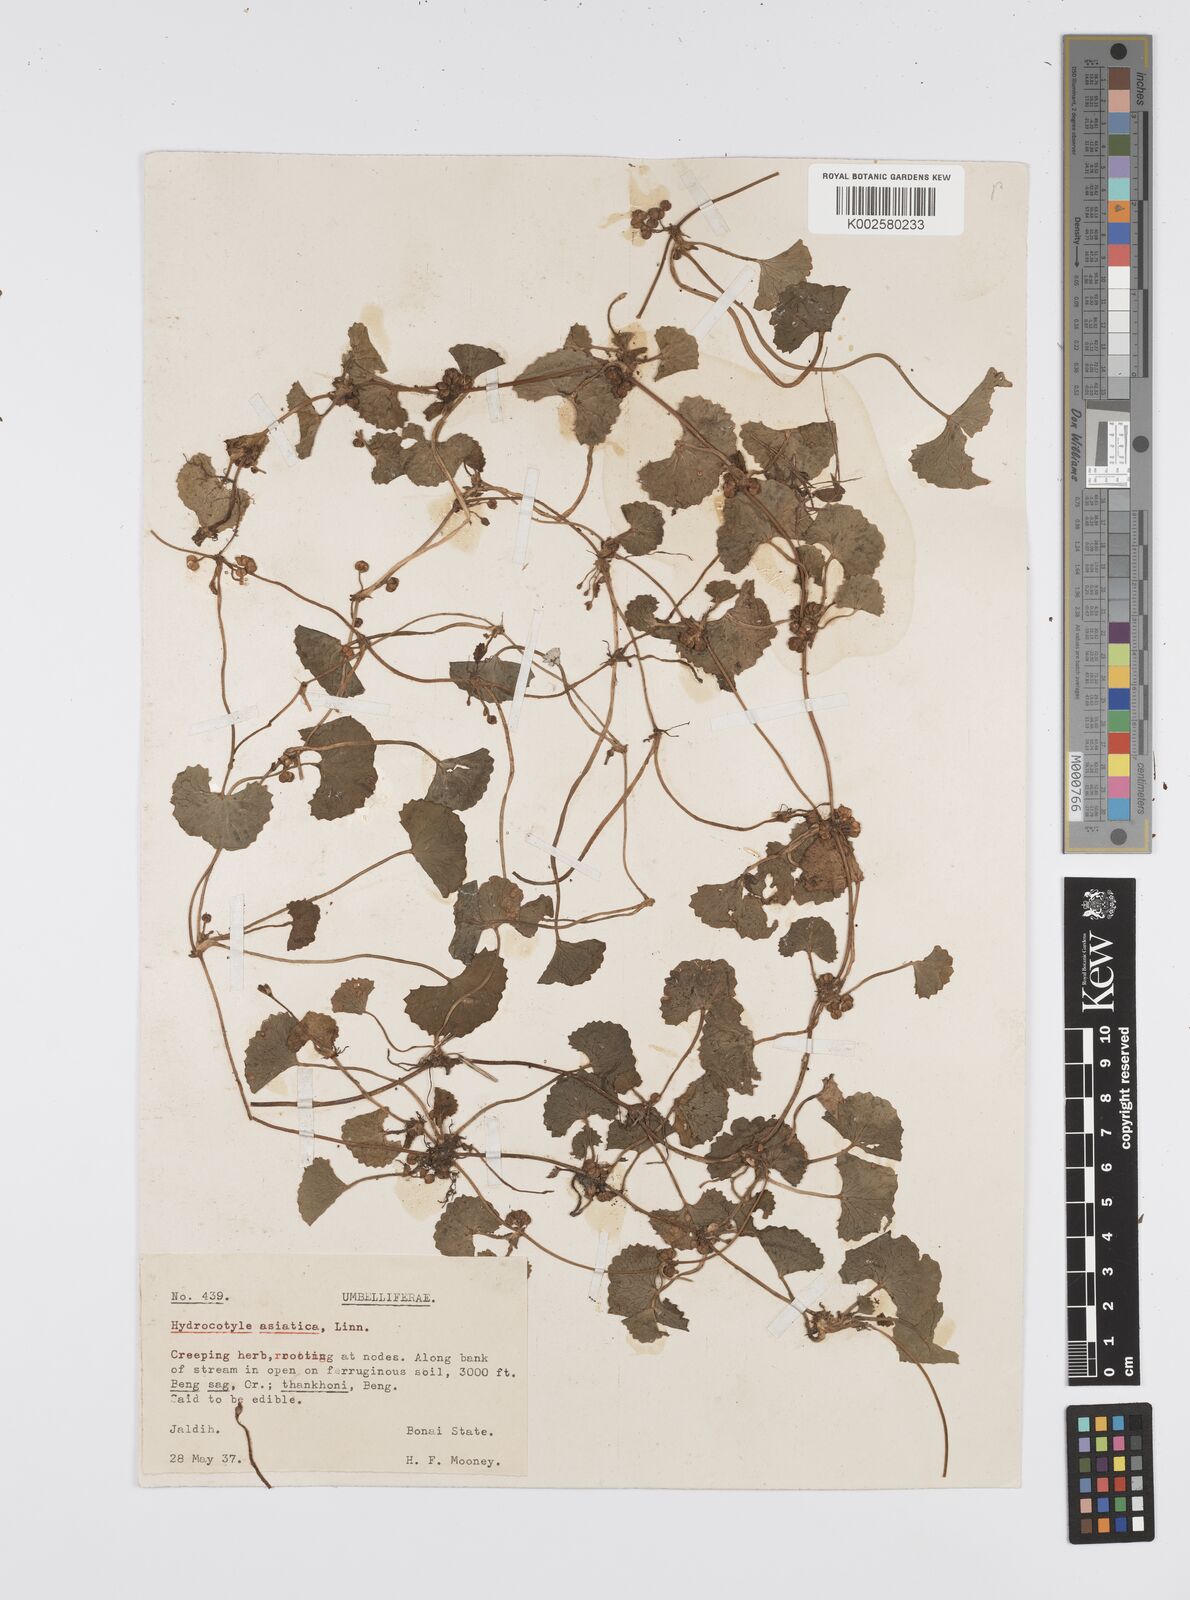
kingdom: Plantae
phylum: Tracheophyta
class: Magnoliopsida
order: Apiales
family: Apiaceae
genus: Centella
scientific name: Centella asiatica
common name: Spadeleaf
